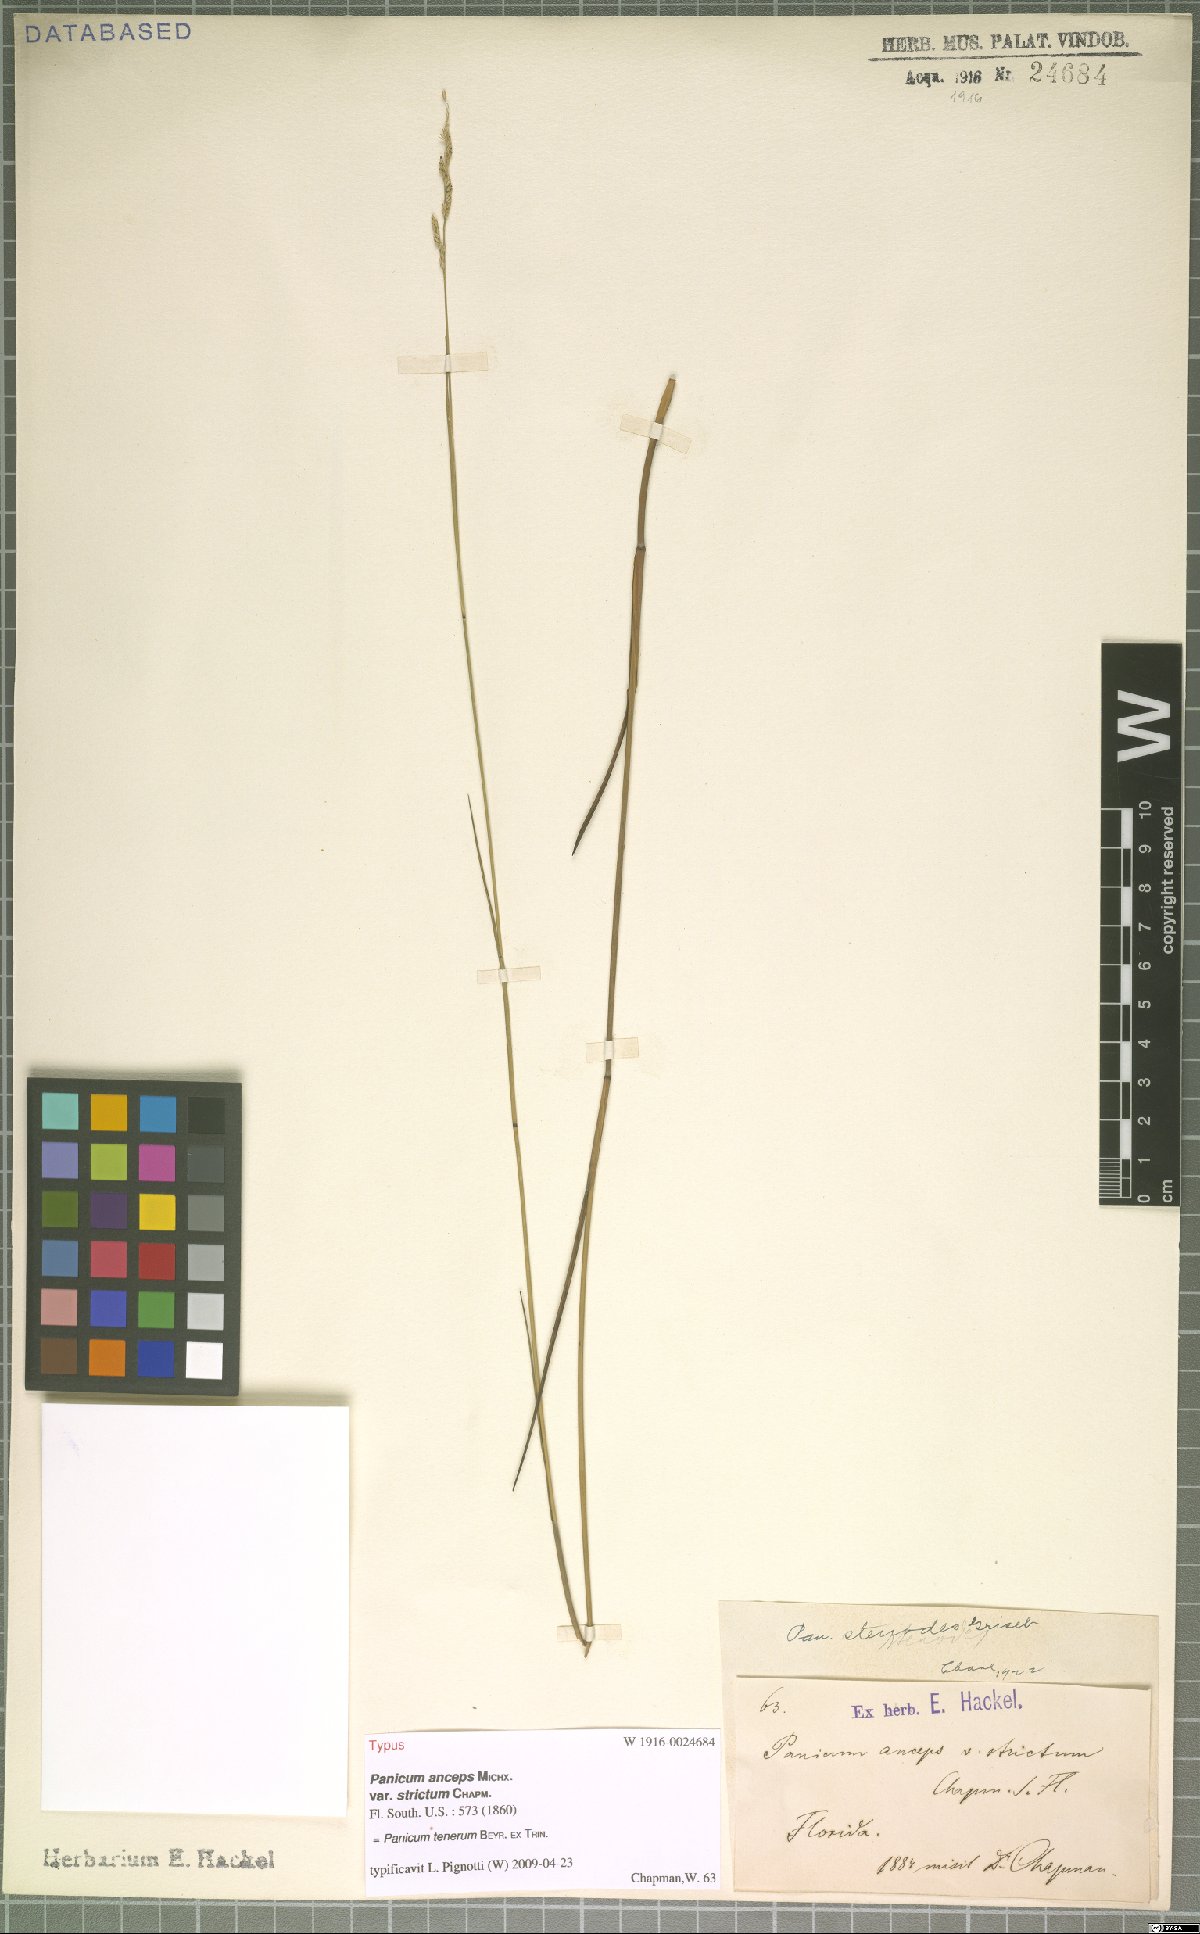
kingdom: Plantae
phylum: Tracheophyta
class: Liliopsida
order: Poales
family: Poaceae
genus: Coleataenia
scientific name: Coleataenia tenera
